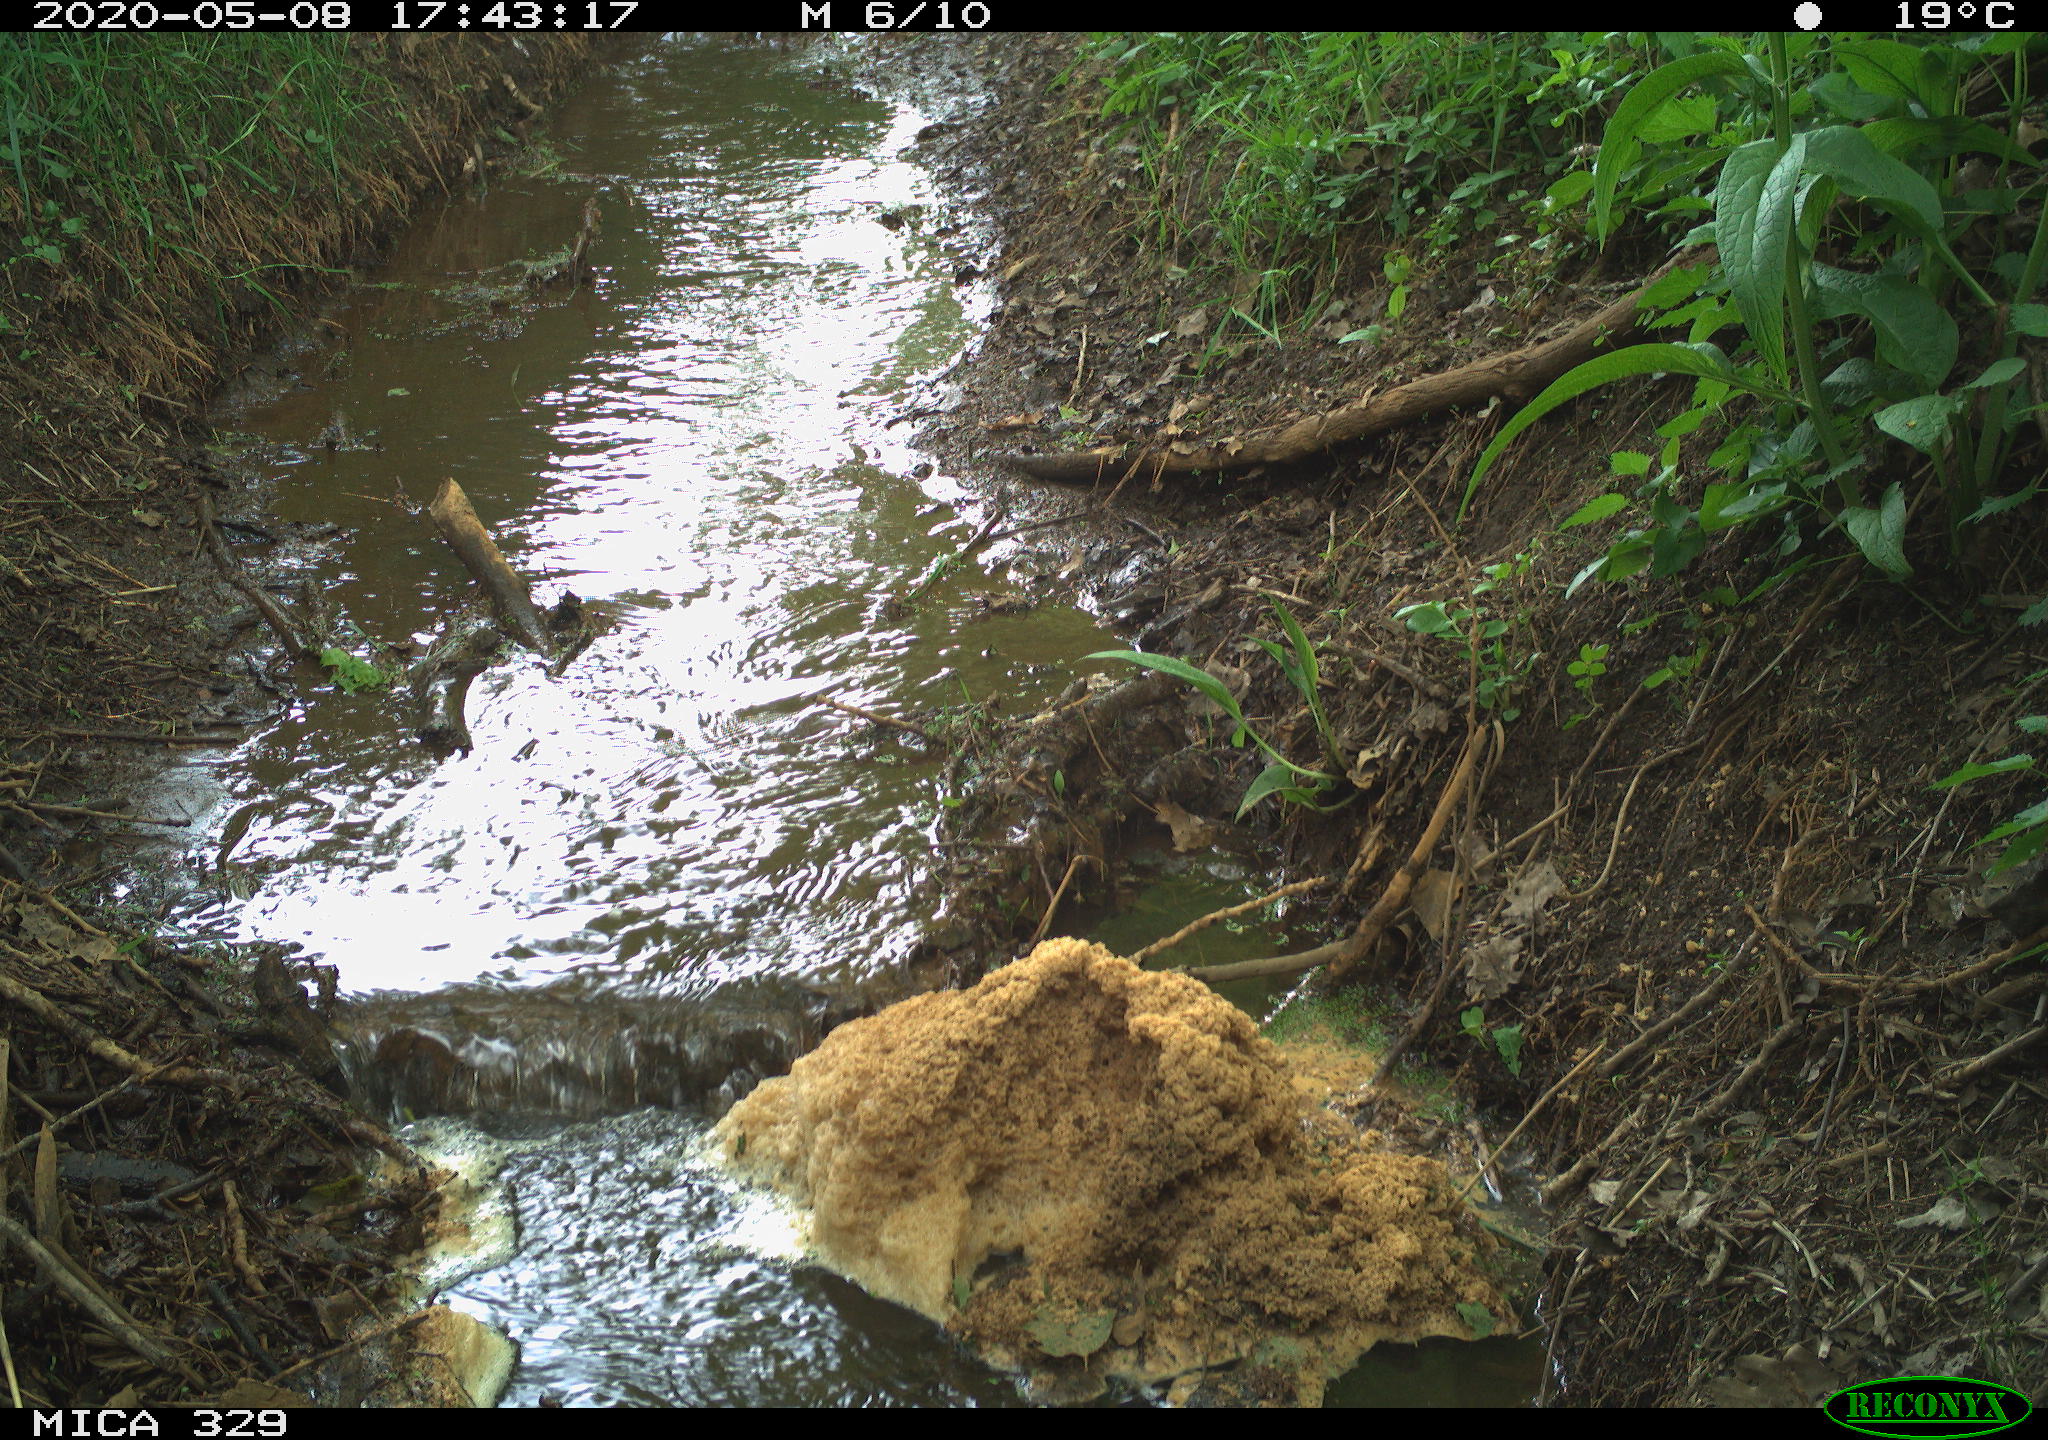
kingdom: Animalia
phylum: Chordata
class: Mammalia
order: Rodentia
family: Cricetidae
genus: Ondatra
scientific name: Ondatra zibethicus
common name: Muskrat
